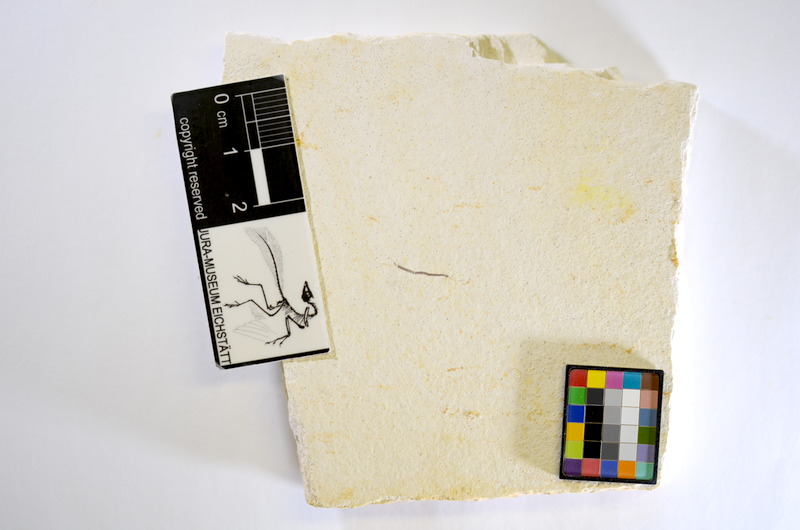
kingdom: Animalia
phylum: Chordata
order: Salmoniformes
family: Orthogonikleithridae
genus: Orthogonikleithrus
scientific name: Orthogonikleithrus hoelli
